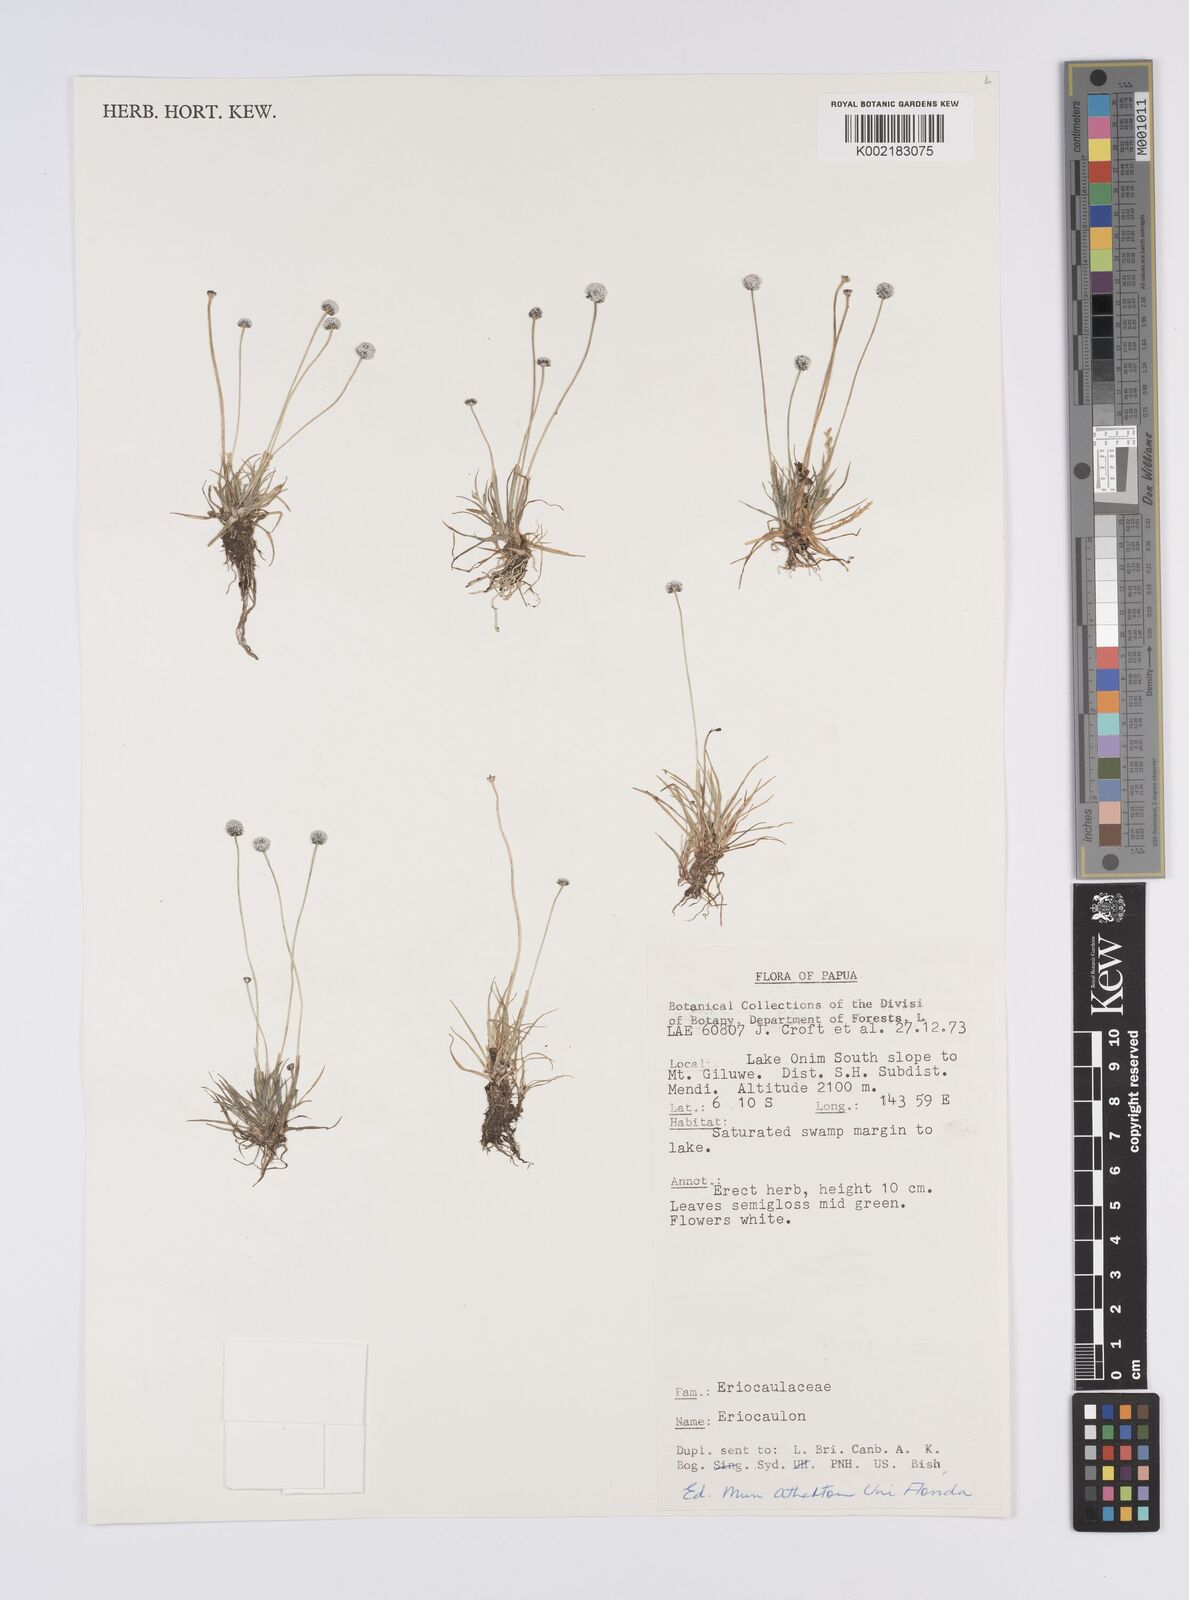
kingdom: Plantae
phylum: Tracheophyta
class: Liliopsida
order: Poales
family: Eriocaulaceae
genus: Eriocaulon
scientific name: Eriocaulon
